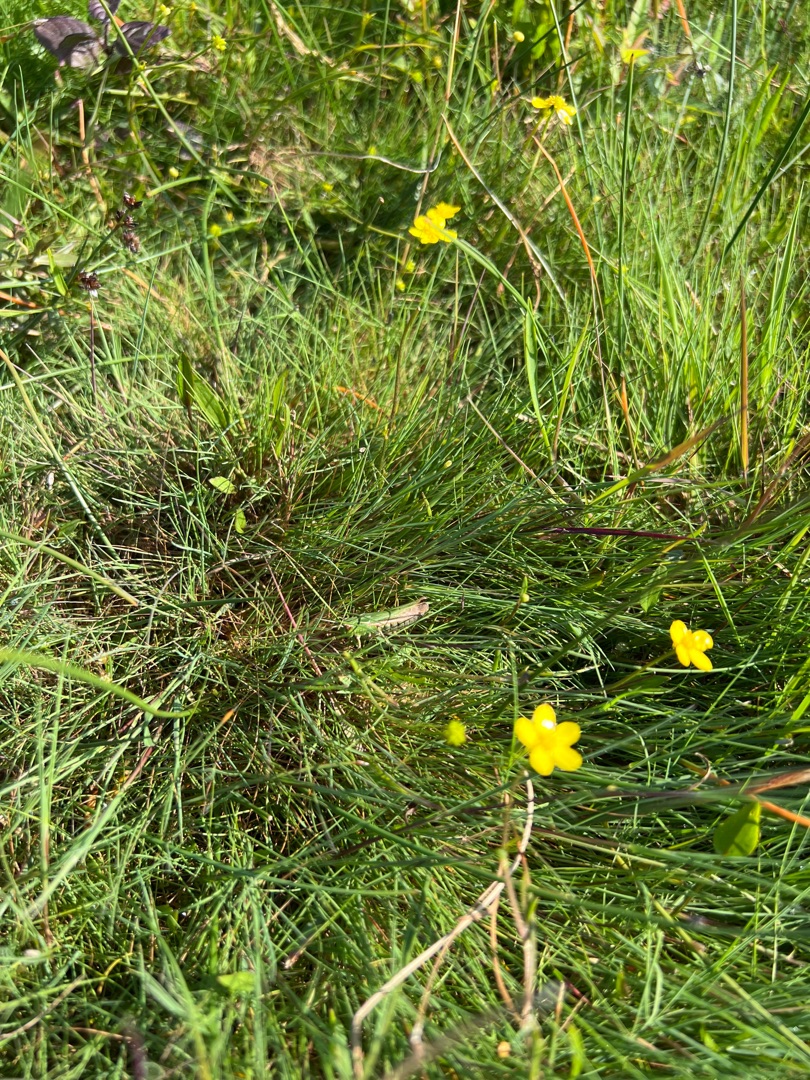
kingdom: Plantae
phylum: Tracheophyta
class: Liliopsida
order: Poales
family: Poaceae
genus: Festuca
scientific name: Festuca rubra
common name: Rød svingel
